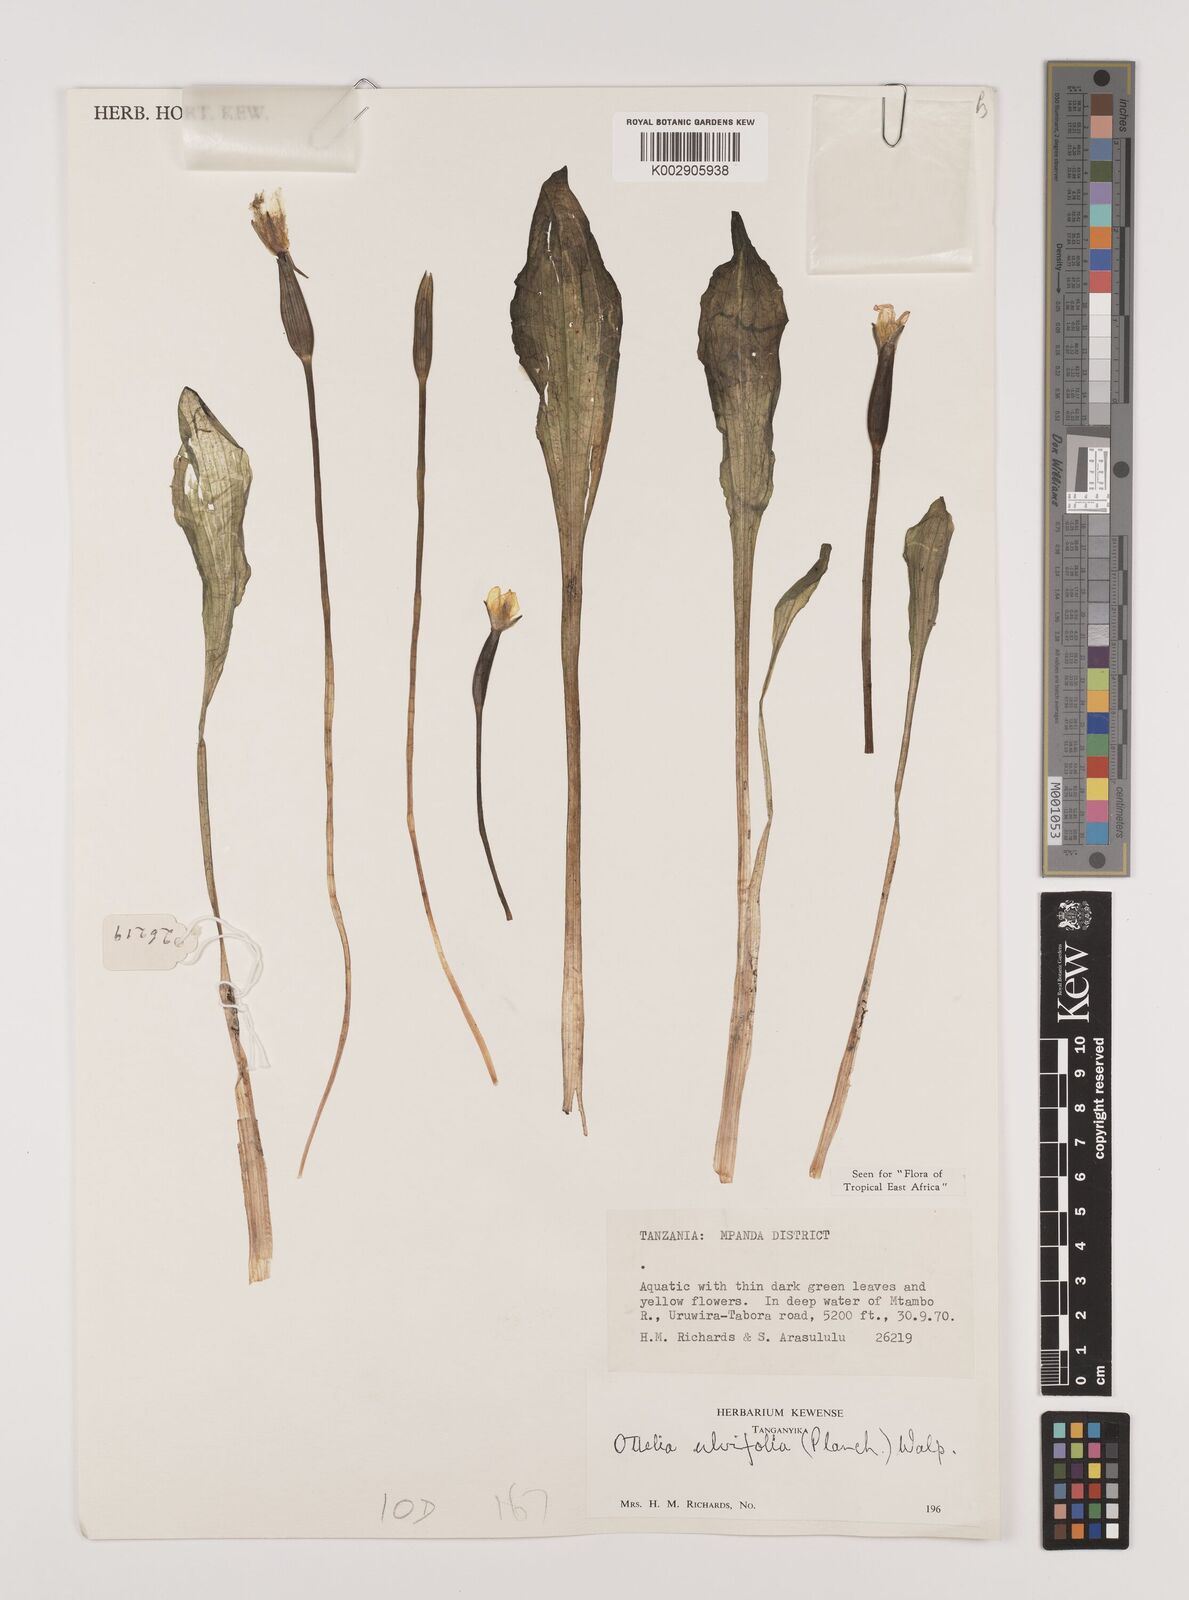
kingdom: Plantae
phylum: Tracheophyta
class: Liliopsida
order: Alismatales
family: Hydrocharitaceae
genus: Ottelia
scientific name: Ottelia ulvifolia
